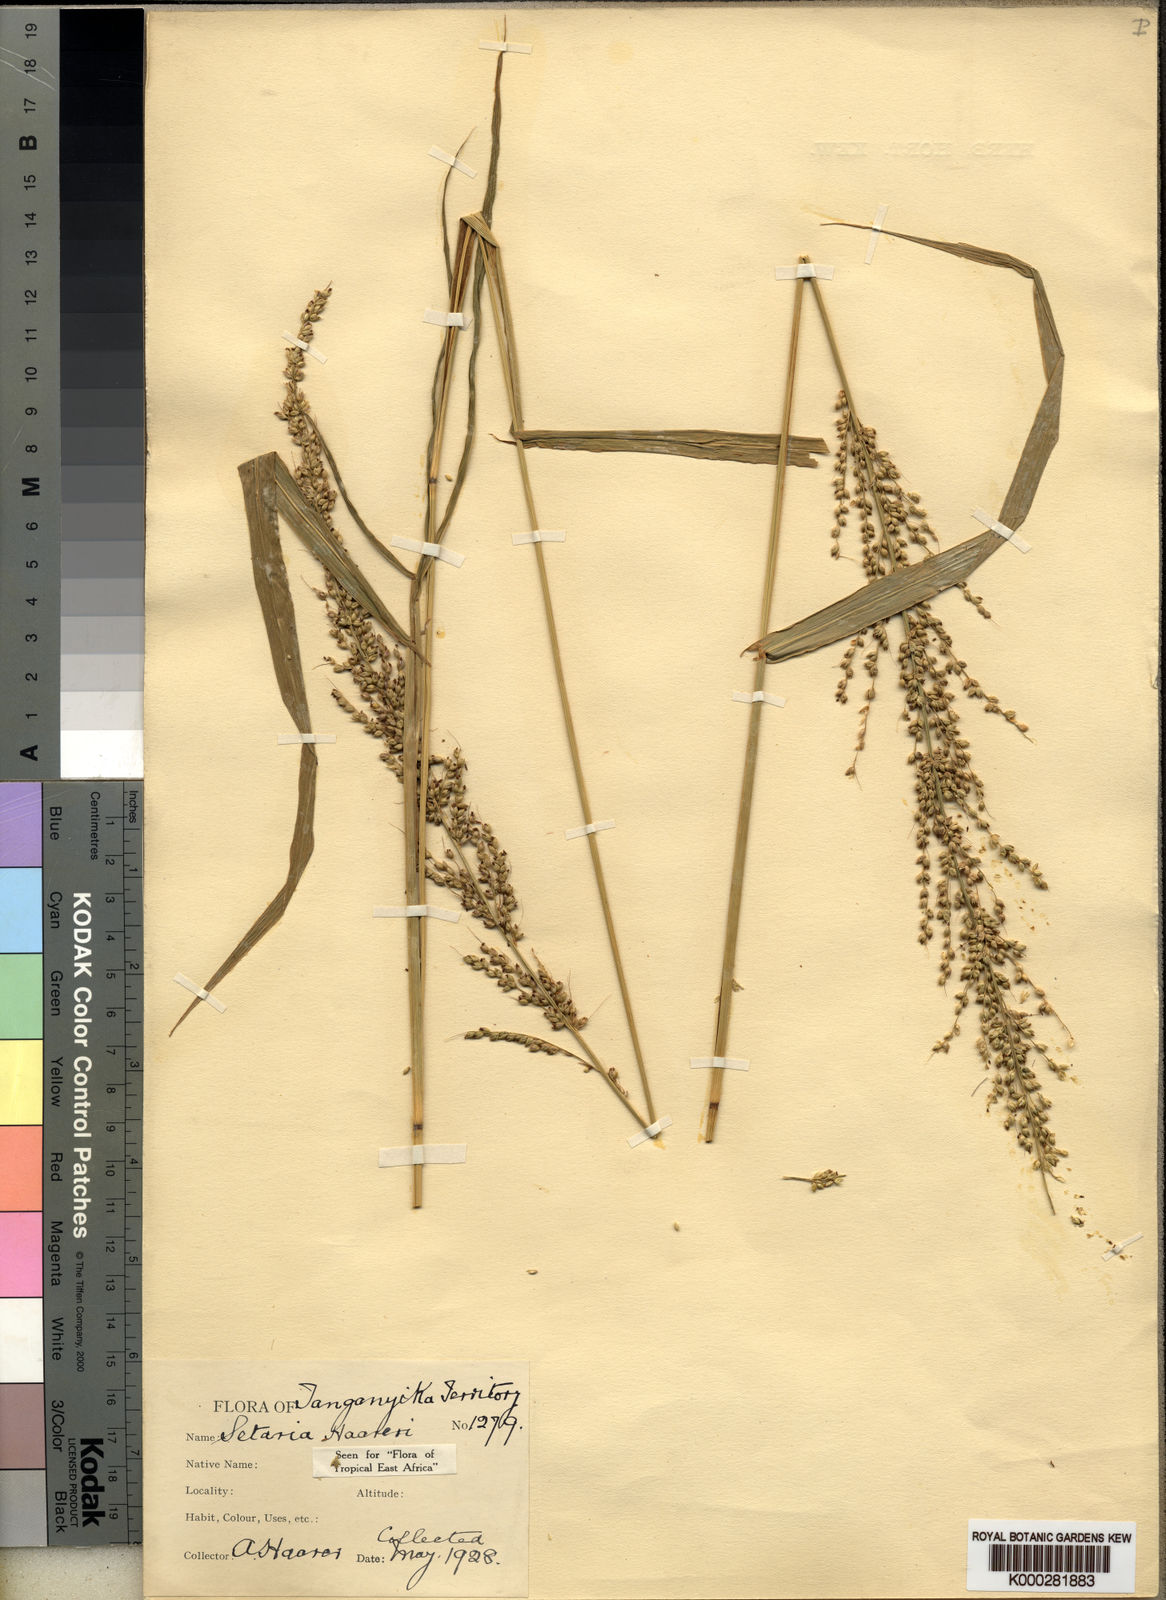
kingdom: Plantae
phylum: Tracheophyta
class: Liliopsida
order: Poales
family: Poaceae
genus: Setaria
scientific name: Setaria appendiculata
